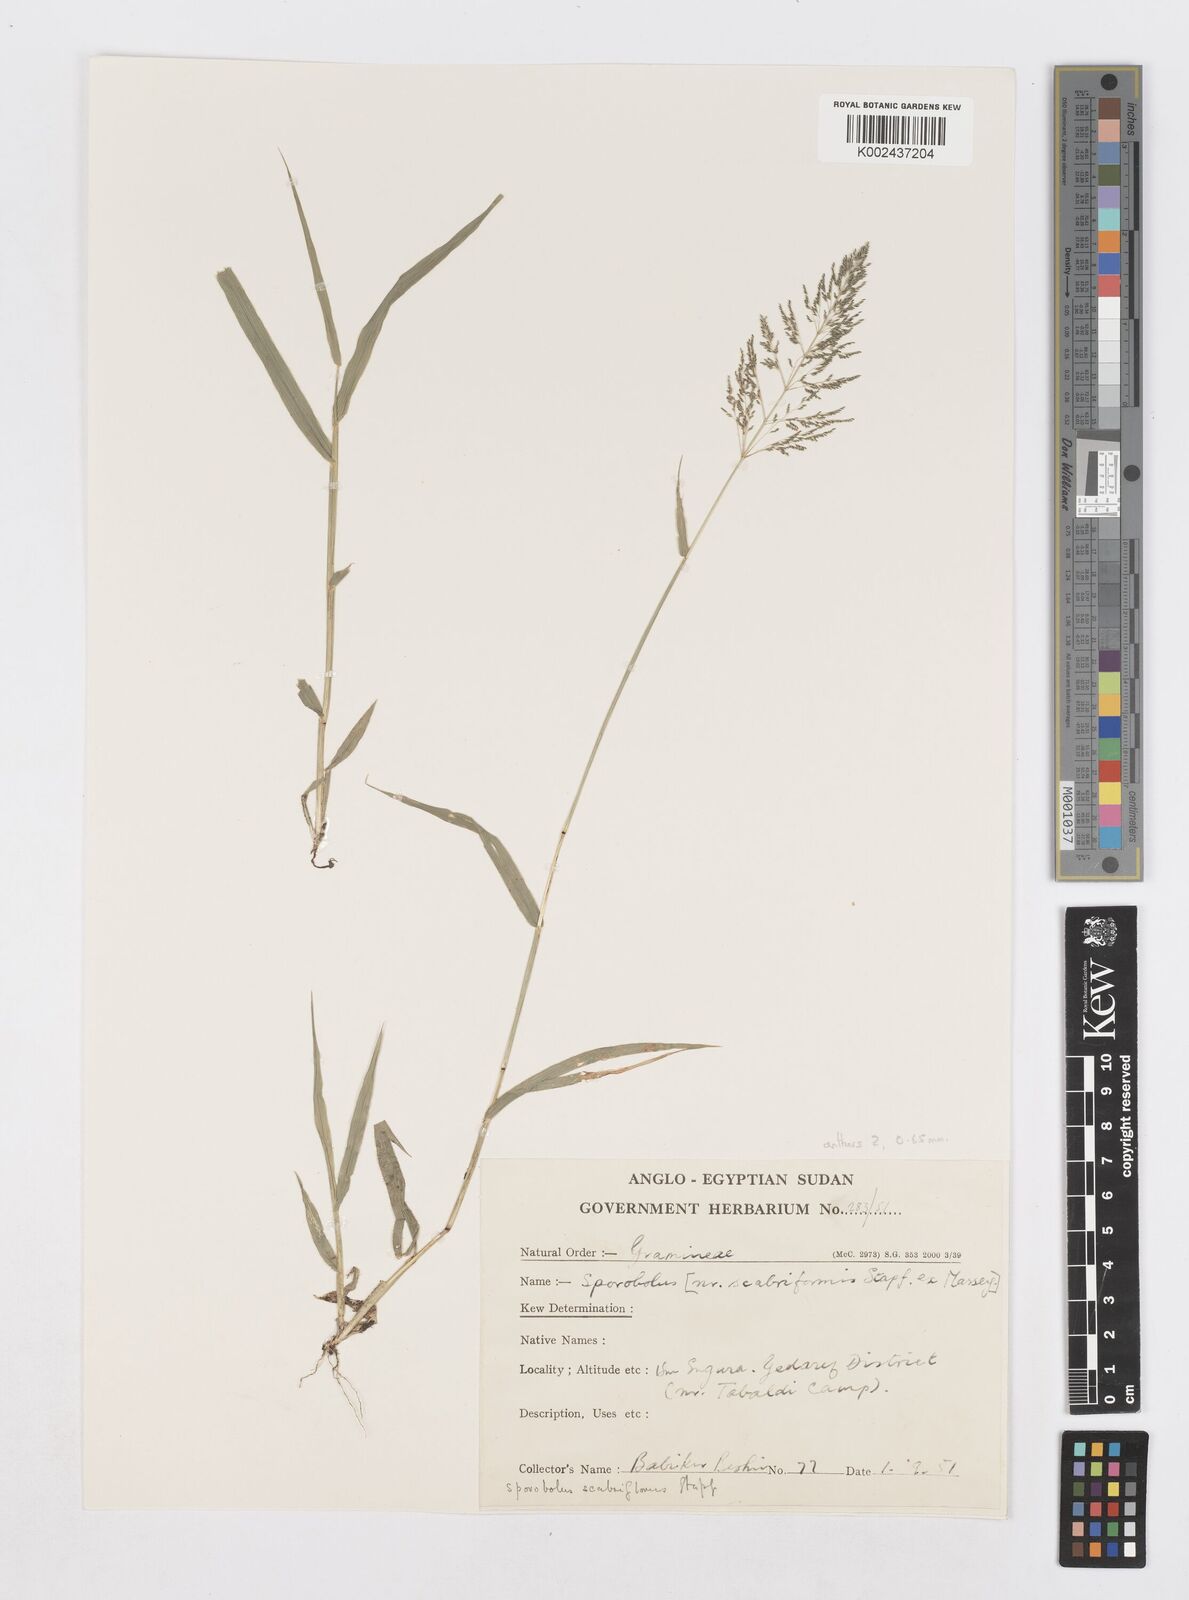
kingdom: Plantae
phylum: Tracheophyta
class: Liliopsida
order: Poales
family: Poaceae
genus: Sporobolus
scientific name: Sporobolus microprotus
